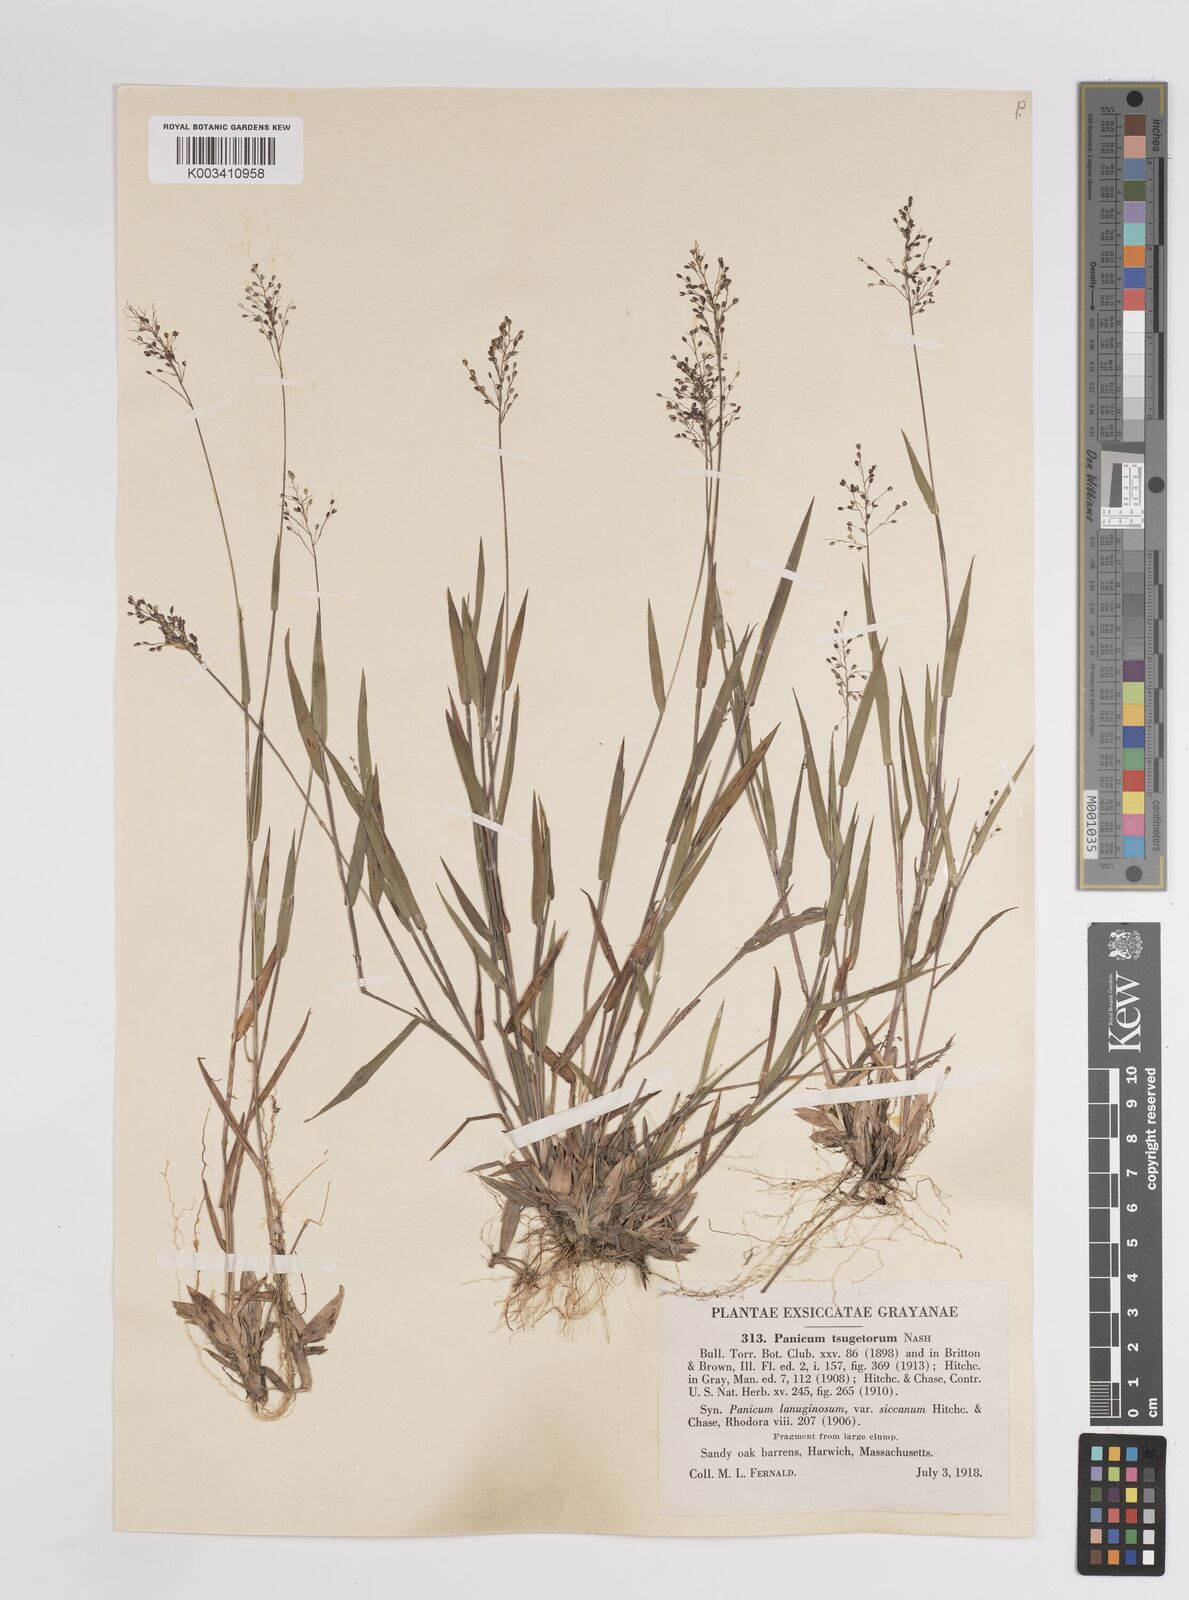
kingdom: Plantae
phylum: Tracheophyta
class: Liliopsida
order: Poales
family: Poaceae
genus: Dichanthelium
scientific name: Dichanthelium columbianum
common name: Hemlock panic grass
